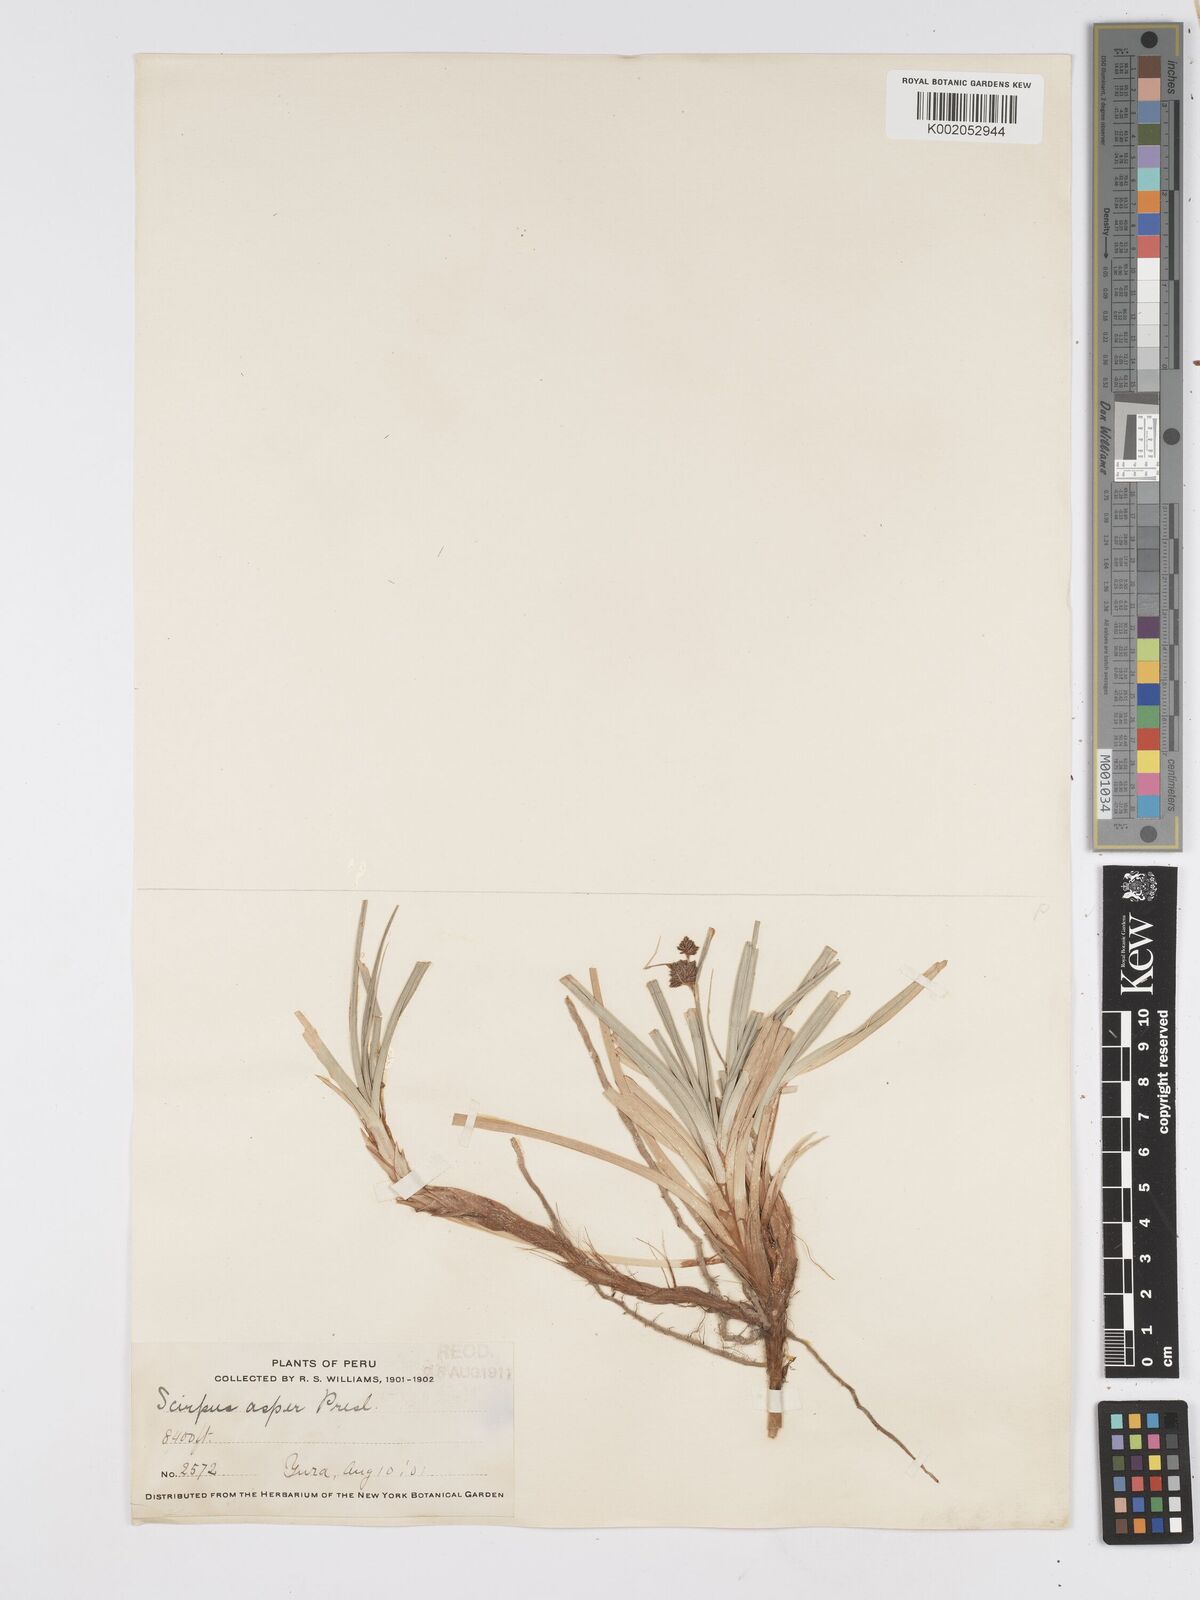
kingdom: Plantae
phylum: Tracheophyta
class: Liliopsida
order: Poales
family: Cyperaceae
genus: Rhodoscirpus
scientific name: Rhodoscirpus asper
